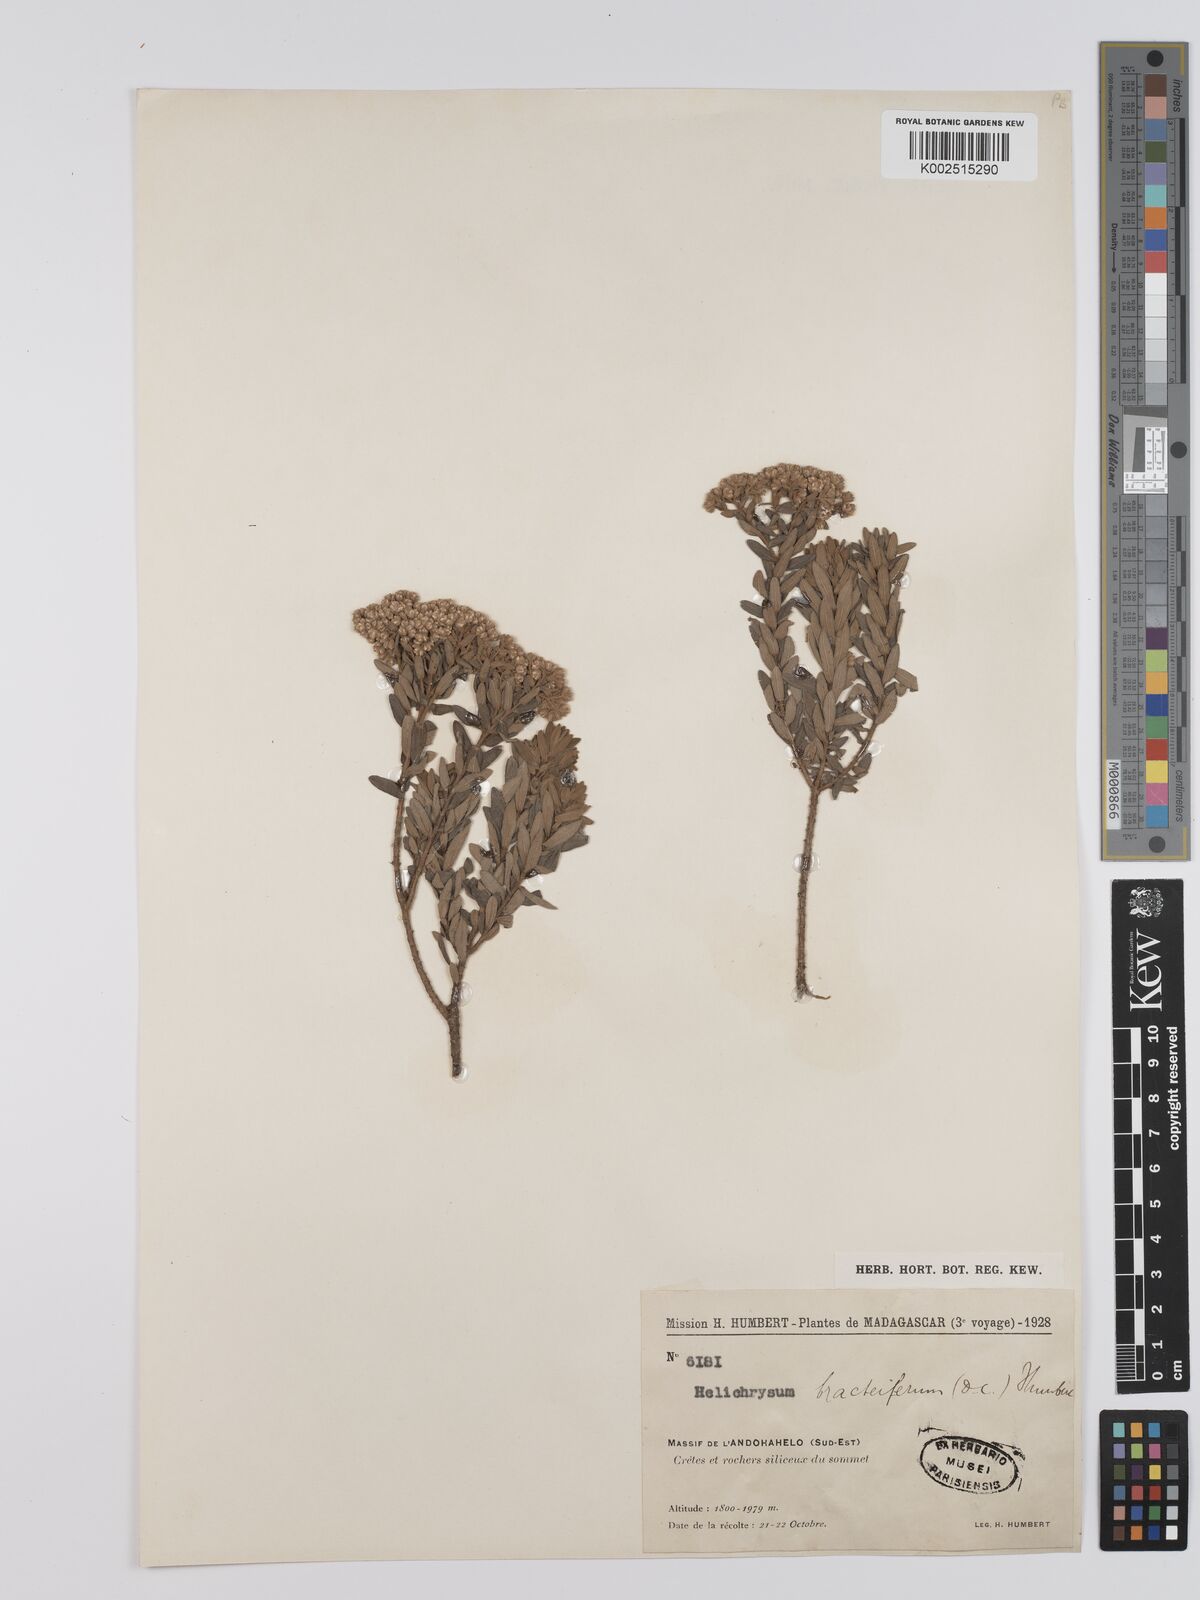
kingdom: Plantae
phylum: Tracheophyta
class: Magnoliopsida
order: Asterales
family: Asteraceae
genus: Helichrysum
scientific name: Helichrysum bracteiferum
